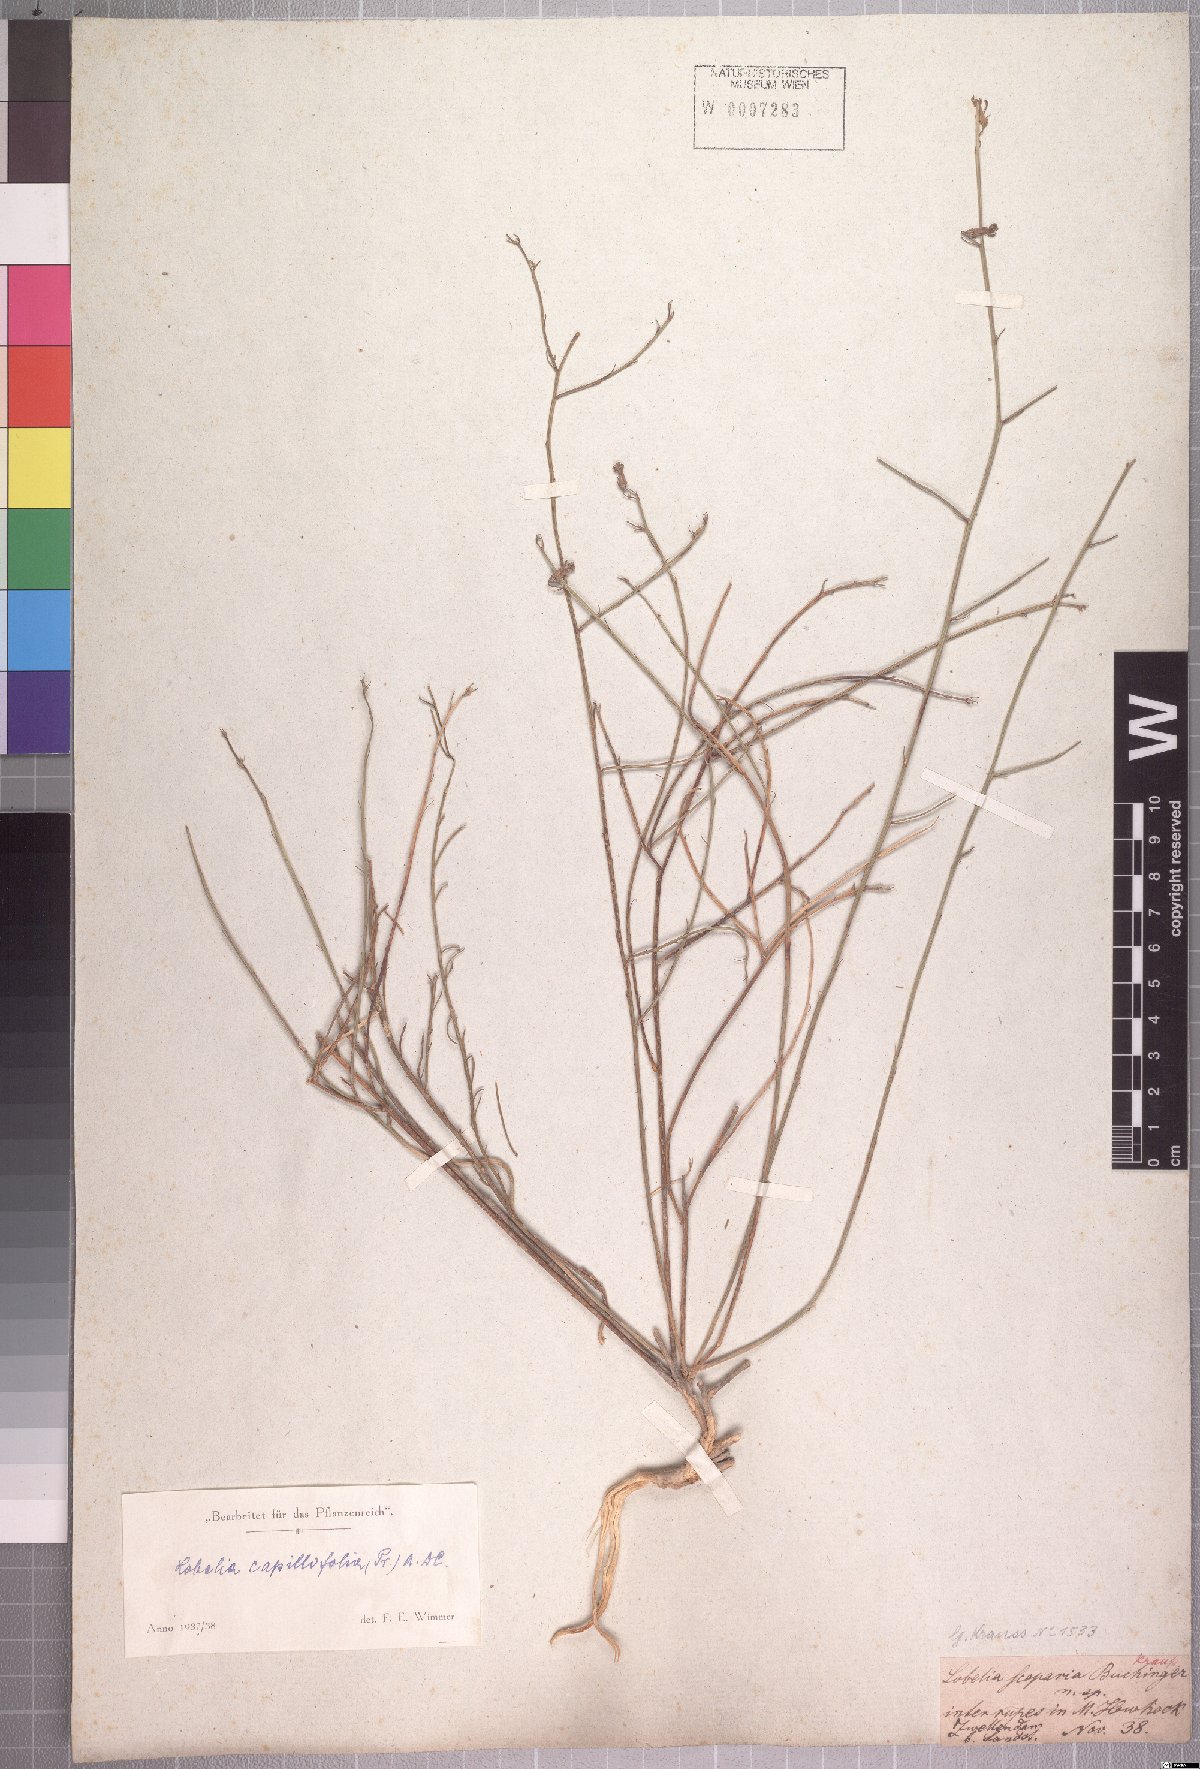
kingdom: Plantae
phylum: Tracheophyta
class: Magnoliopsida
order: Asterales
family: Campanulaceae
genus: Lobelia
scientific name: Lobelia capillifolia
